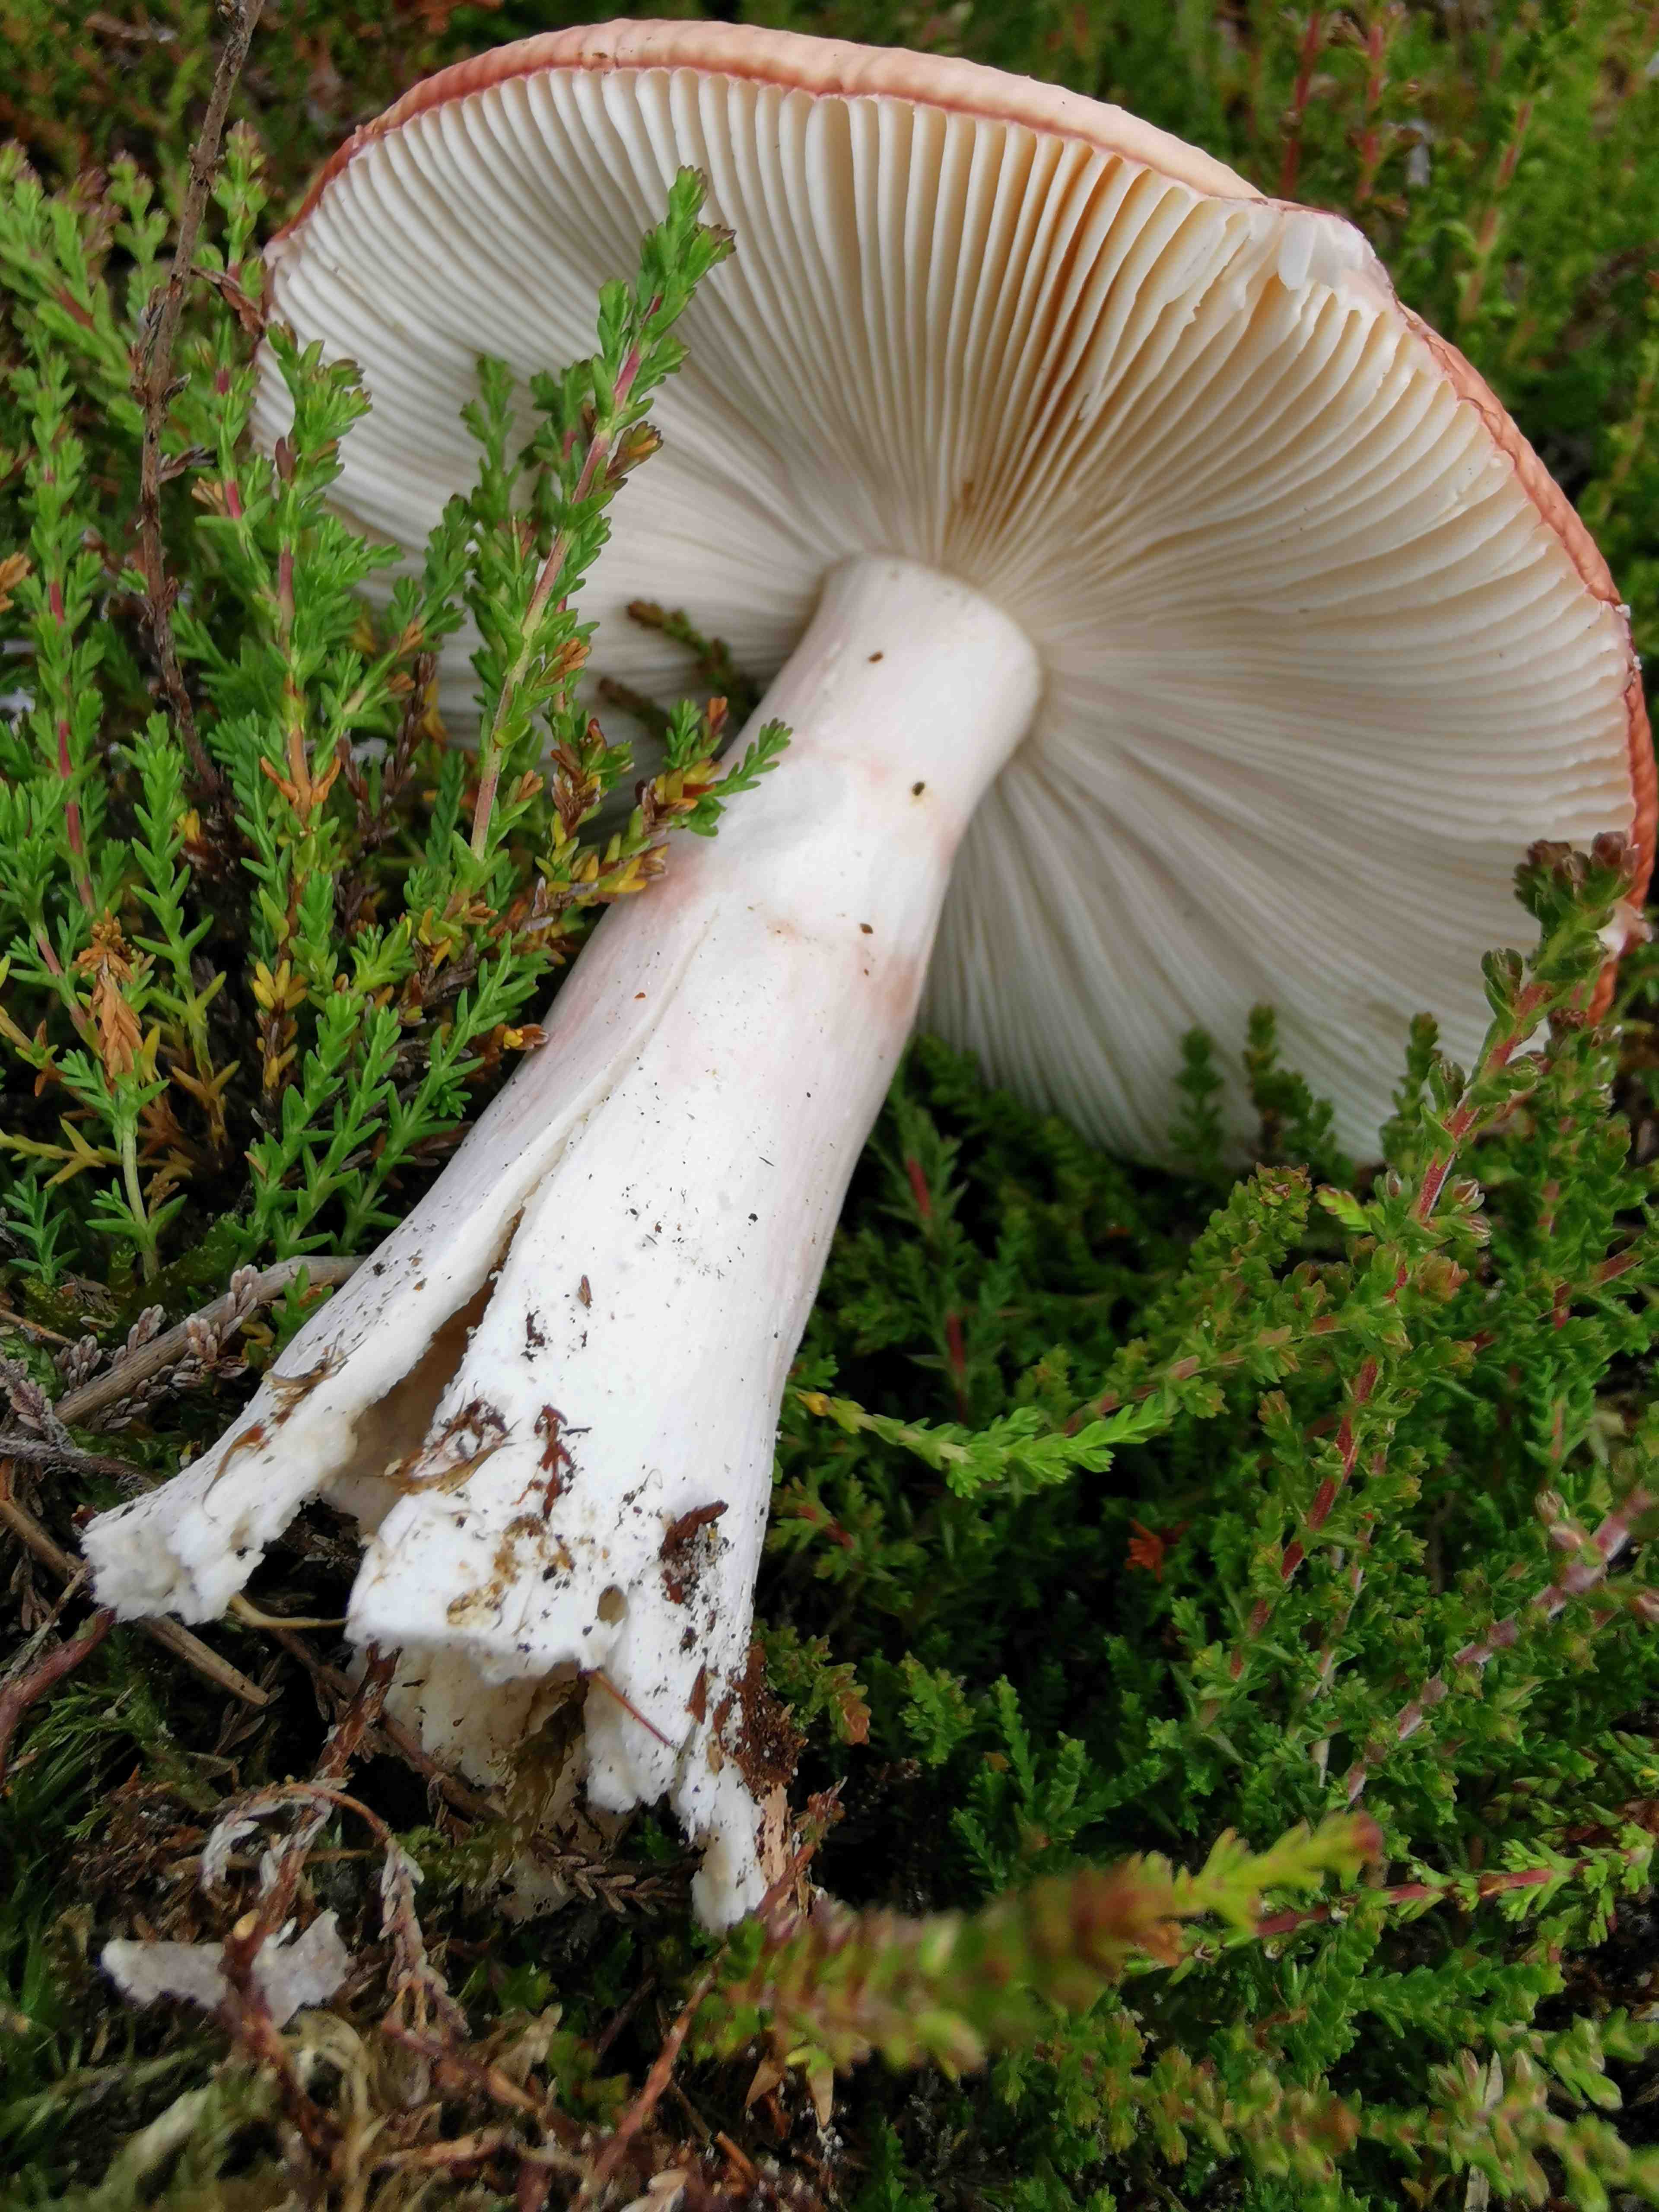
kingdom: Fungi
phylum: Basidiomycota
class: Agaricomycetes
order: Russulales
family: Russulaceae
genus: Russula
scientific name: Russula paludosa
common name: prægtig skørhat
